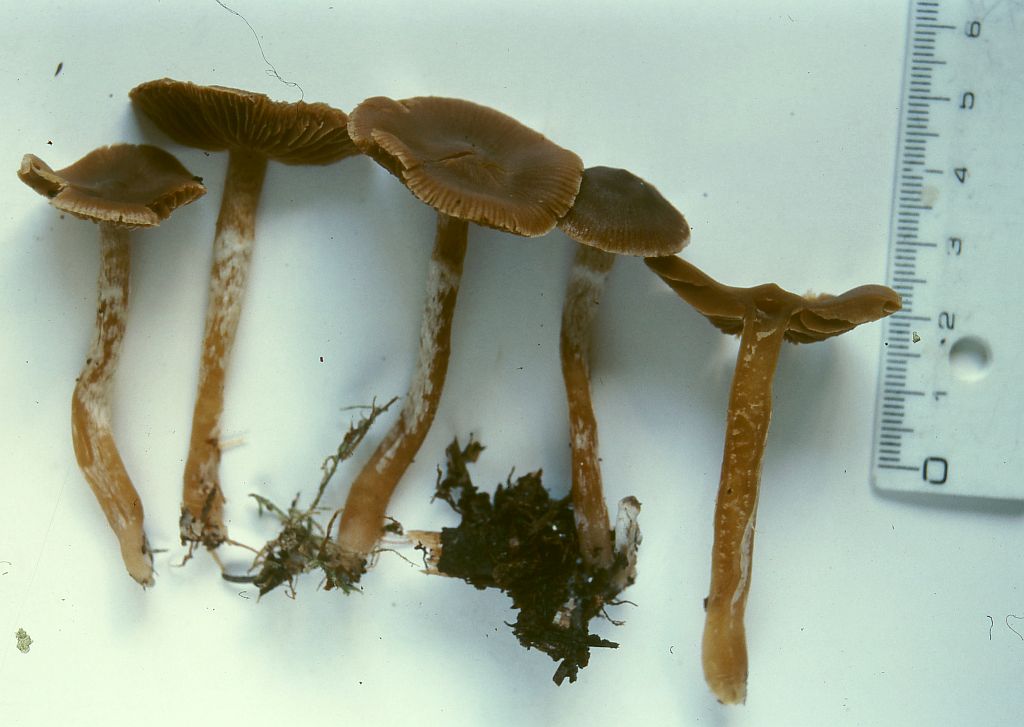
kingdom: Fungi
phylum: Basidiomycota
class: Agaricomycetes
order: Agaricales
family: Cortinariaceae
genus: Cortinarius
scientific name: Cortinarius
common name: hvidægget slørhat
